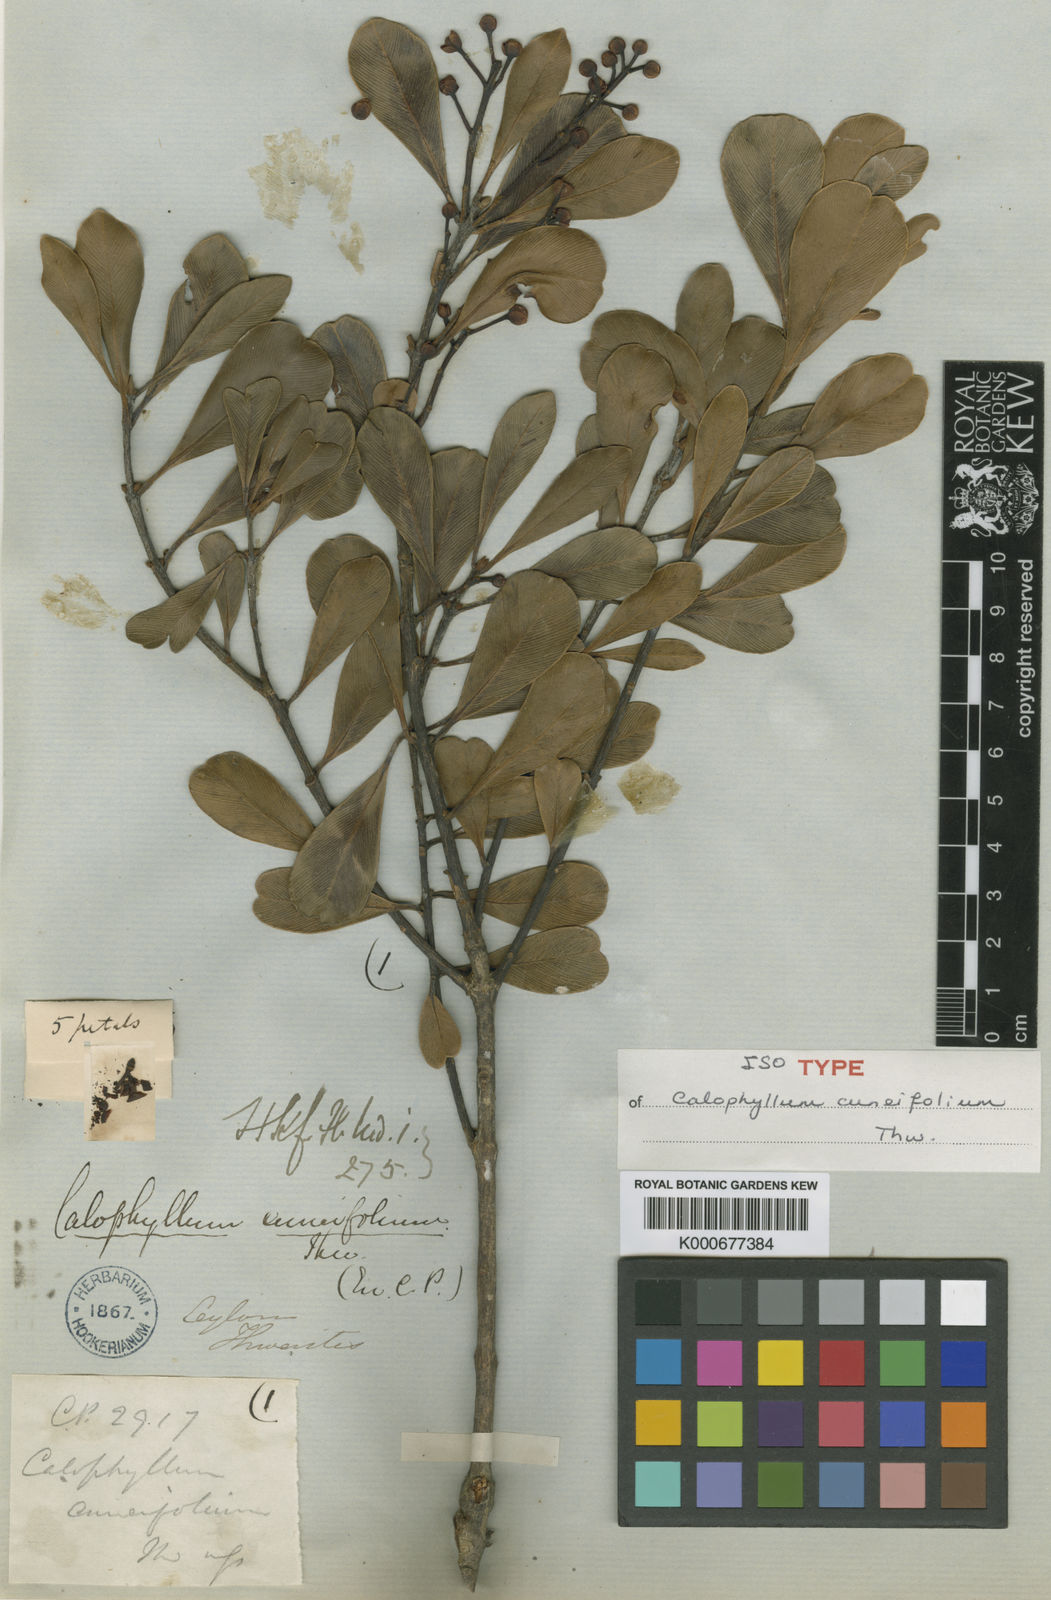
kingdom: Plantae
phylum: Tracheophyta
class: Magnoliopsida
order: Malpighiales
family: Calophyllaceae
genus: Calophyllum
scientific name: Calophyllum cuneifolium
